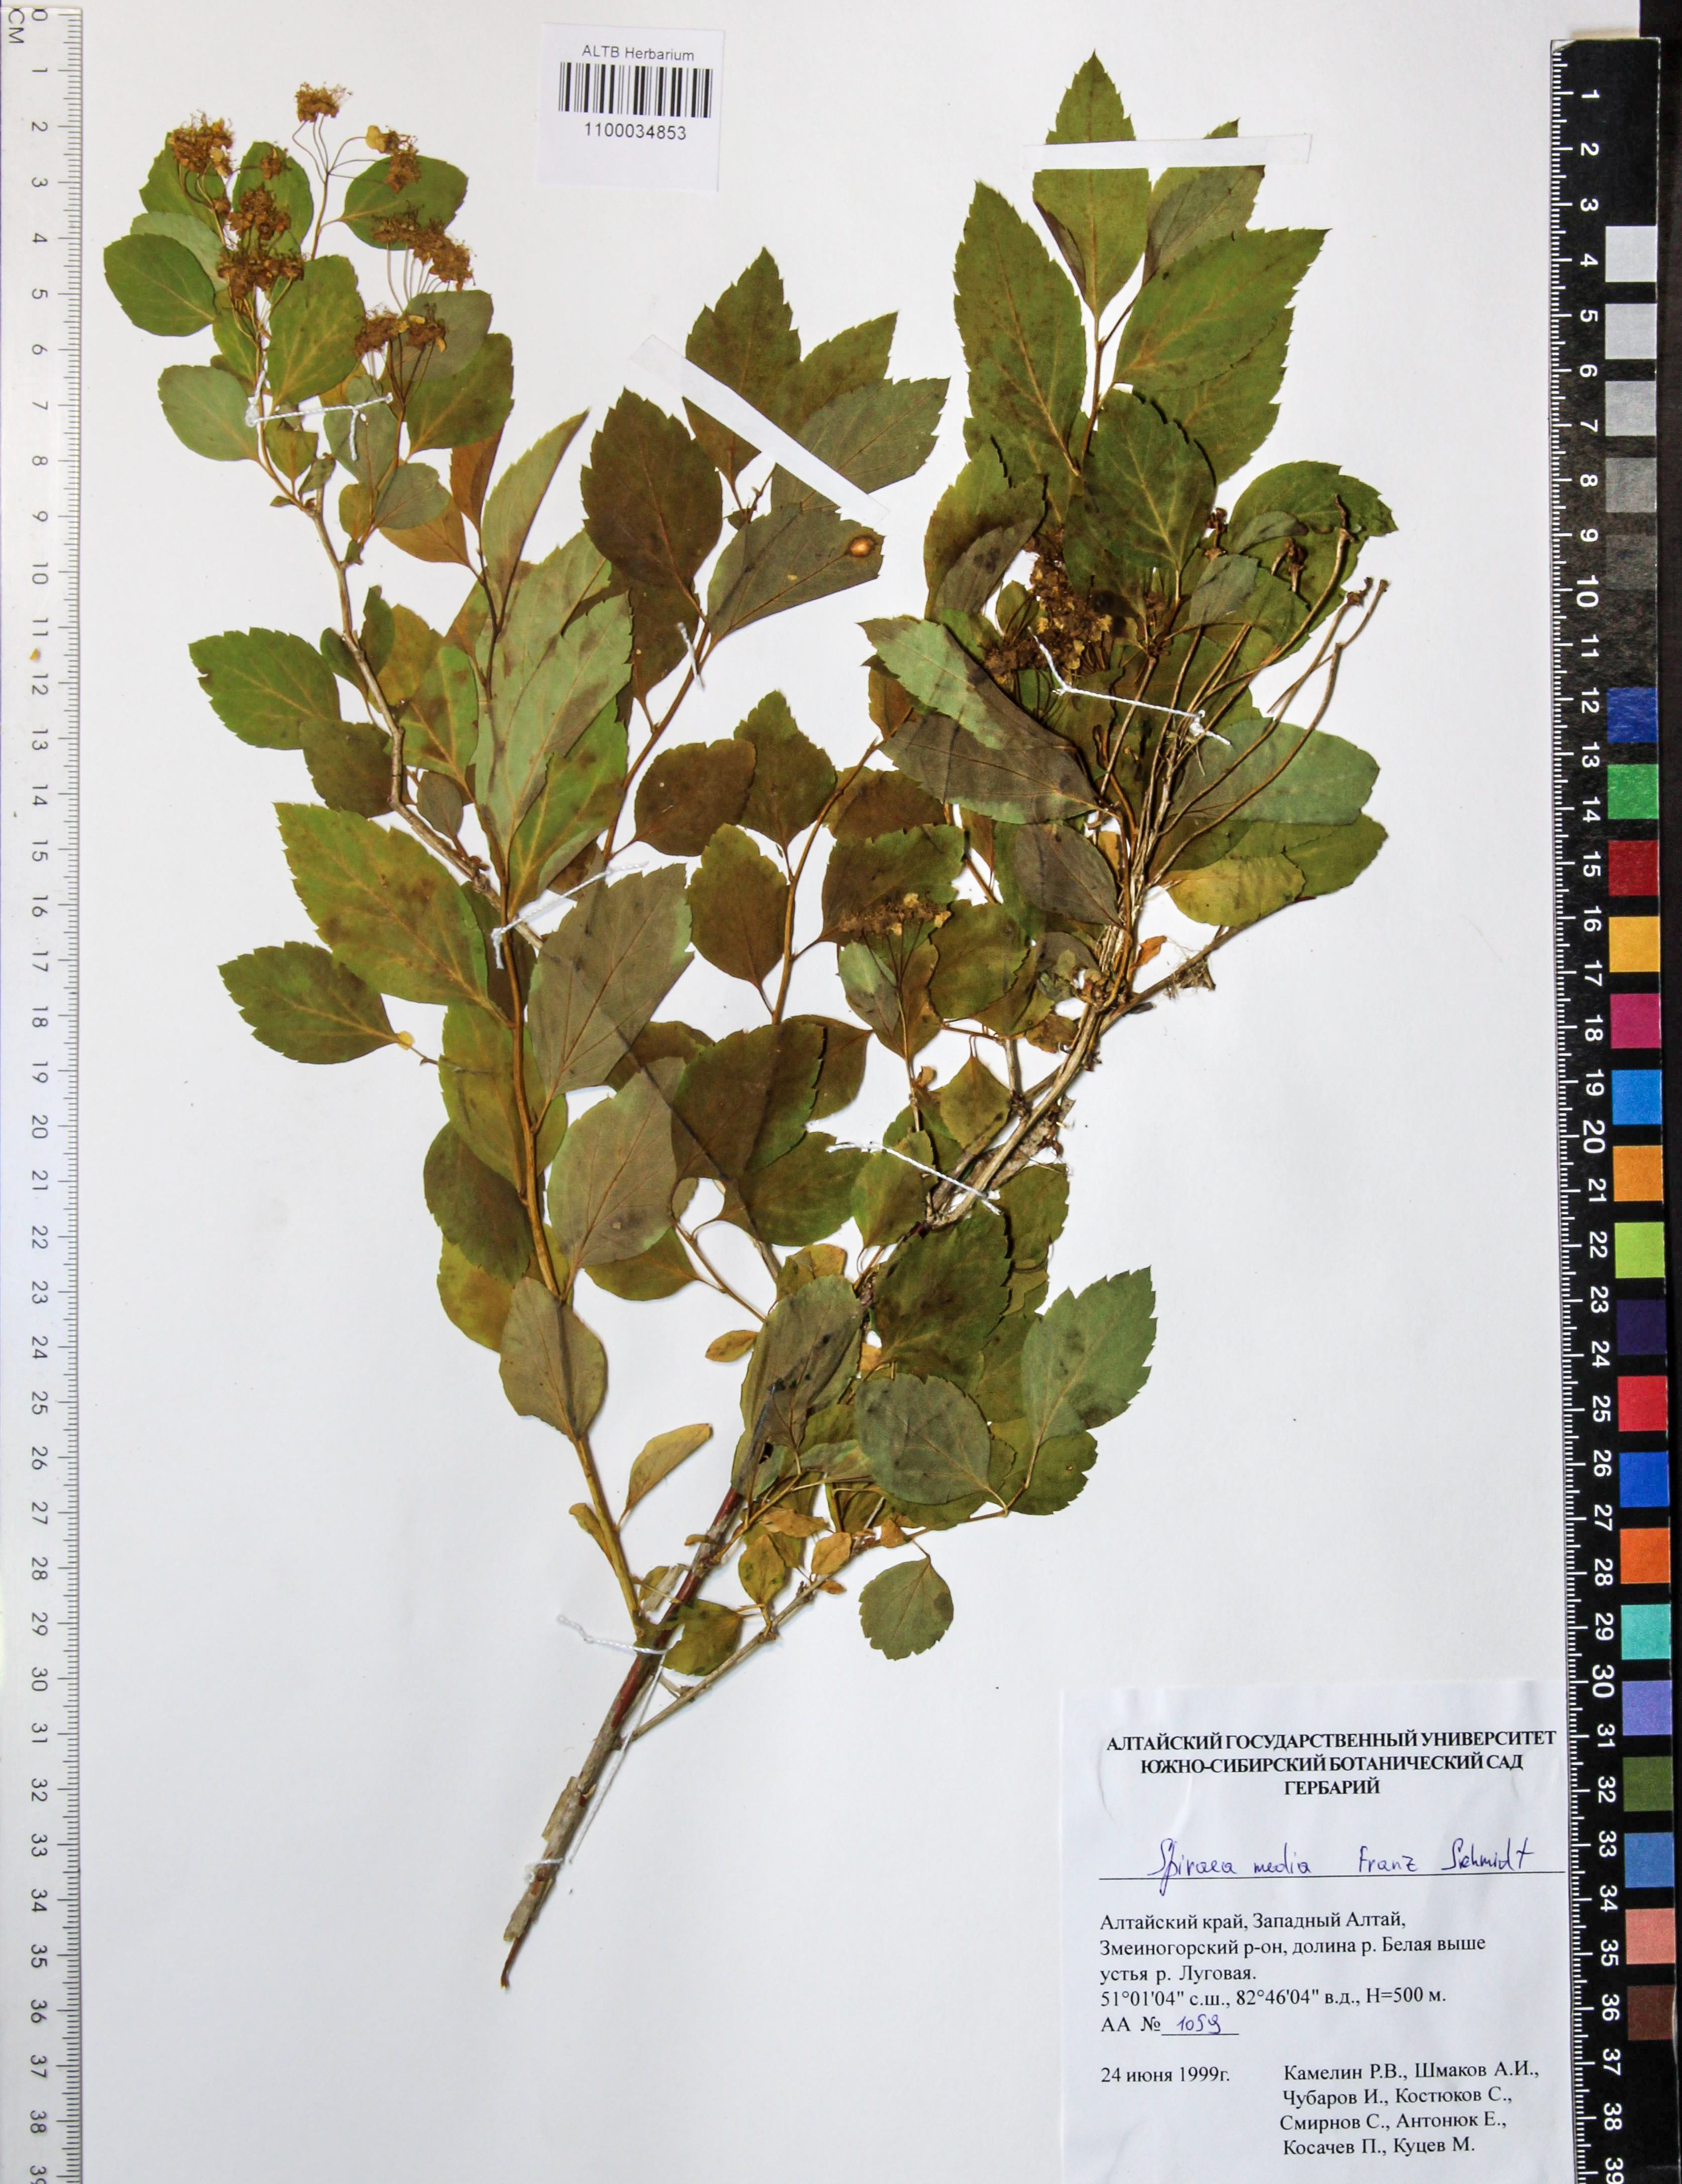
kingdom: Plantae
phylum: Tracheophyta
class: Magnoliopsida
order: Rosales
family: Rosaceae
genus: Spiraea
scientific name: Spiraea media
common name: Russian spiraea
